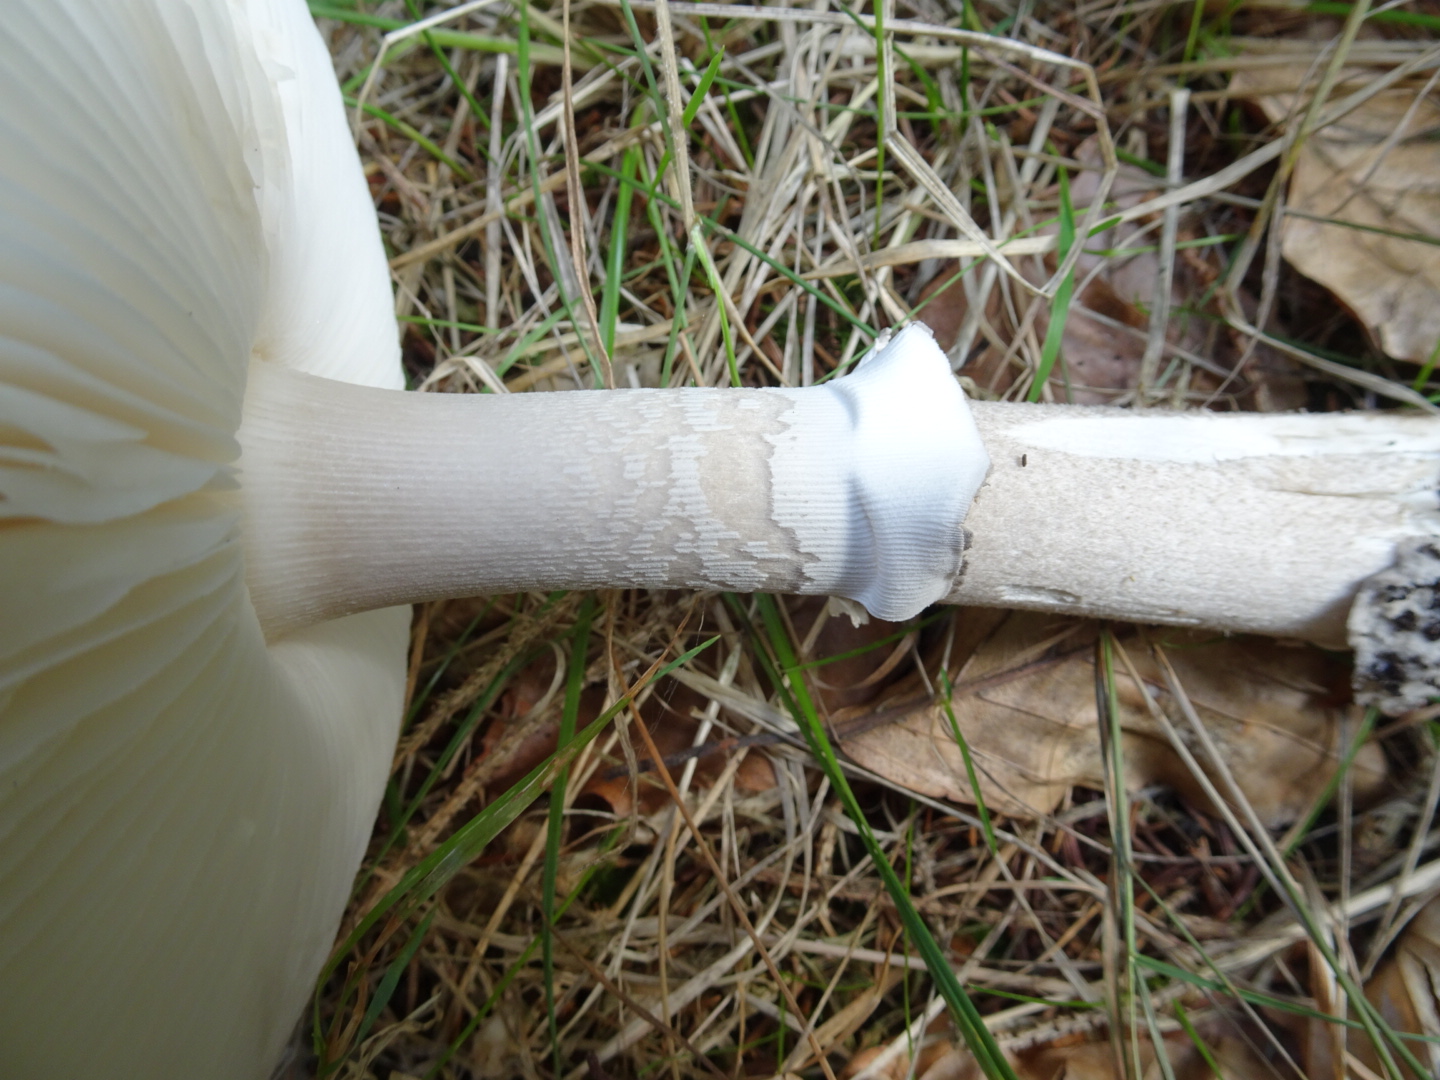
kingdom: Fungi
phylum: Basidiomycota
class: Agaricomycetes
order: Agaricales
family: Amanitaceae
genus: Amanita
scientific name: Amanita
